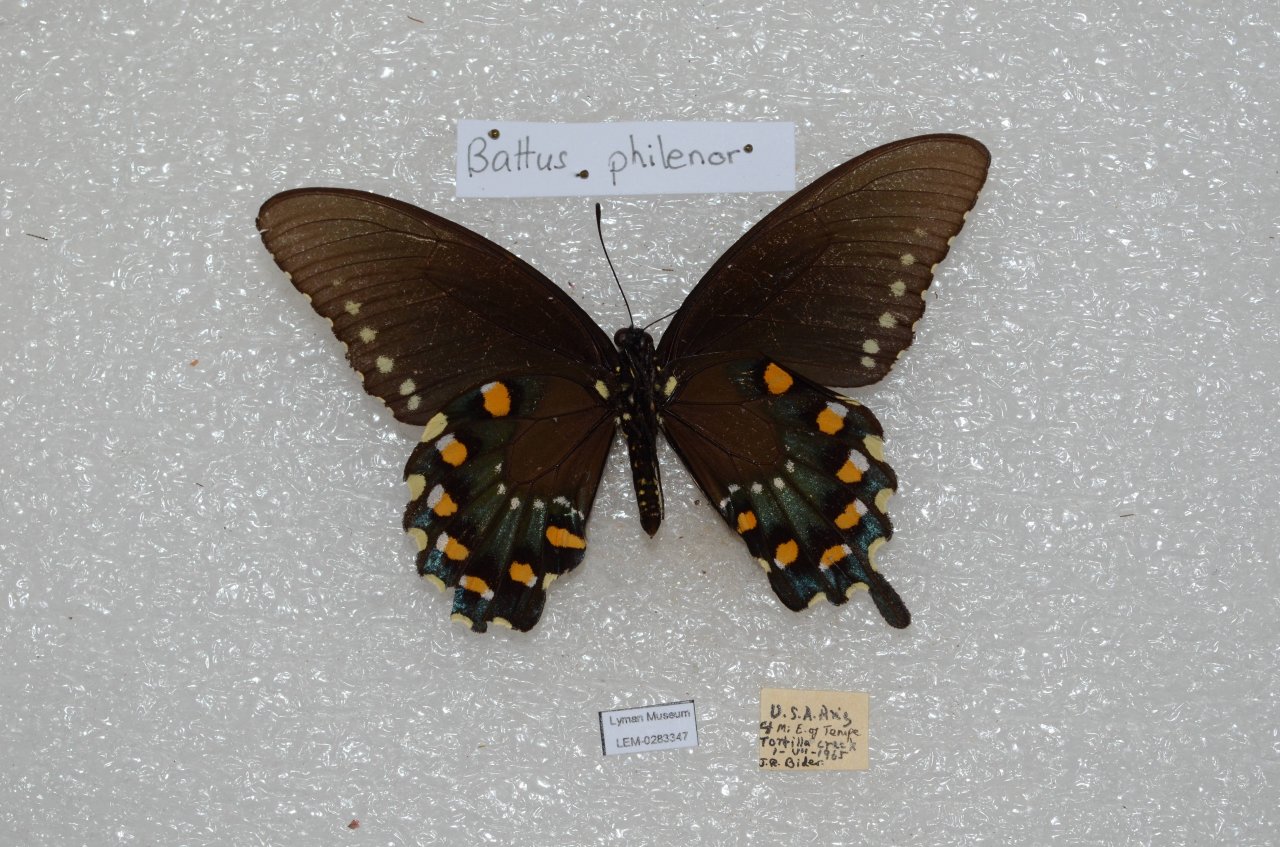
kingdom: Animalia
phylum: Arthropoda
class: Insecta
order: Lepidoptera
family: Papilionidae
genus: Battus
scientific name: Battus philenor
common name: Pipevine Swallowtail
